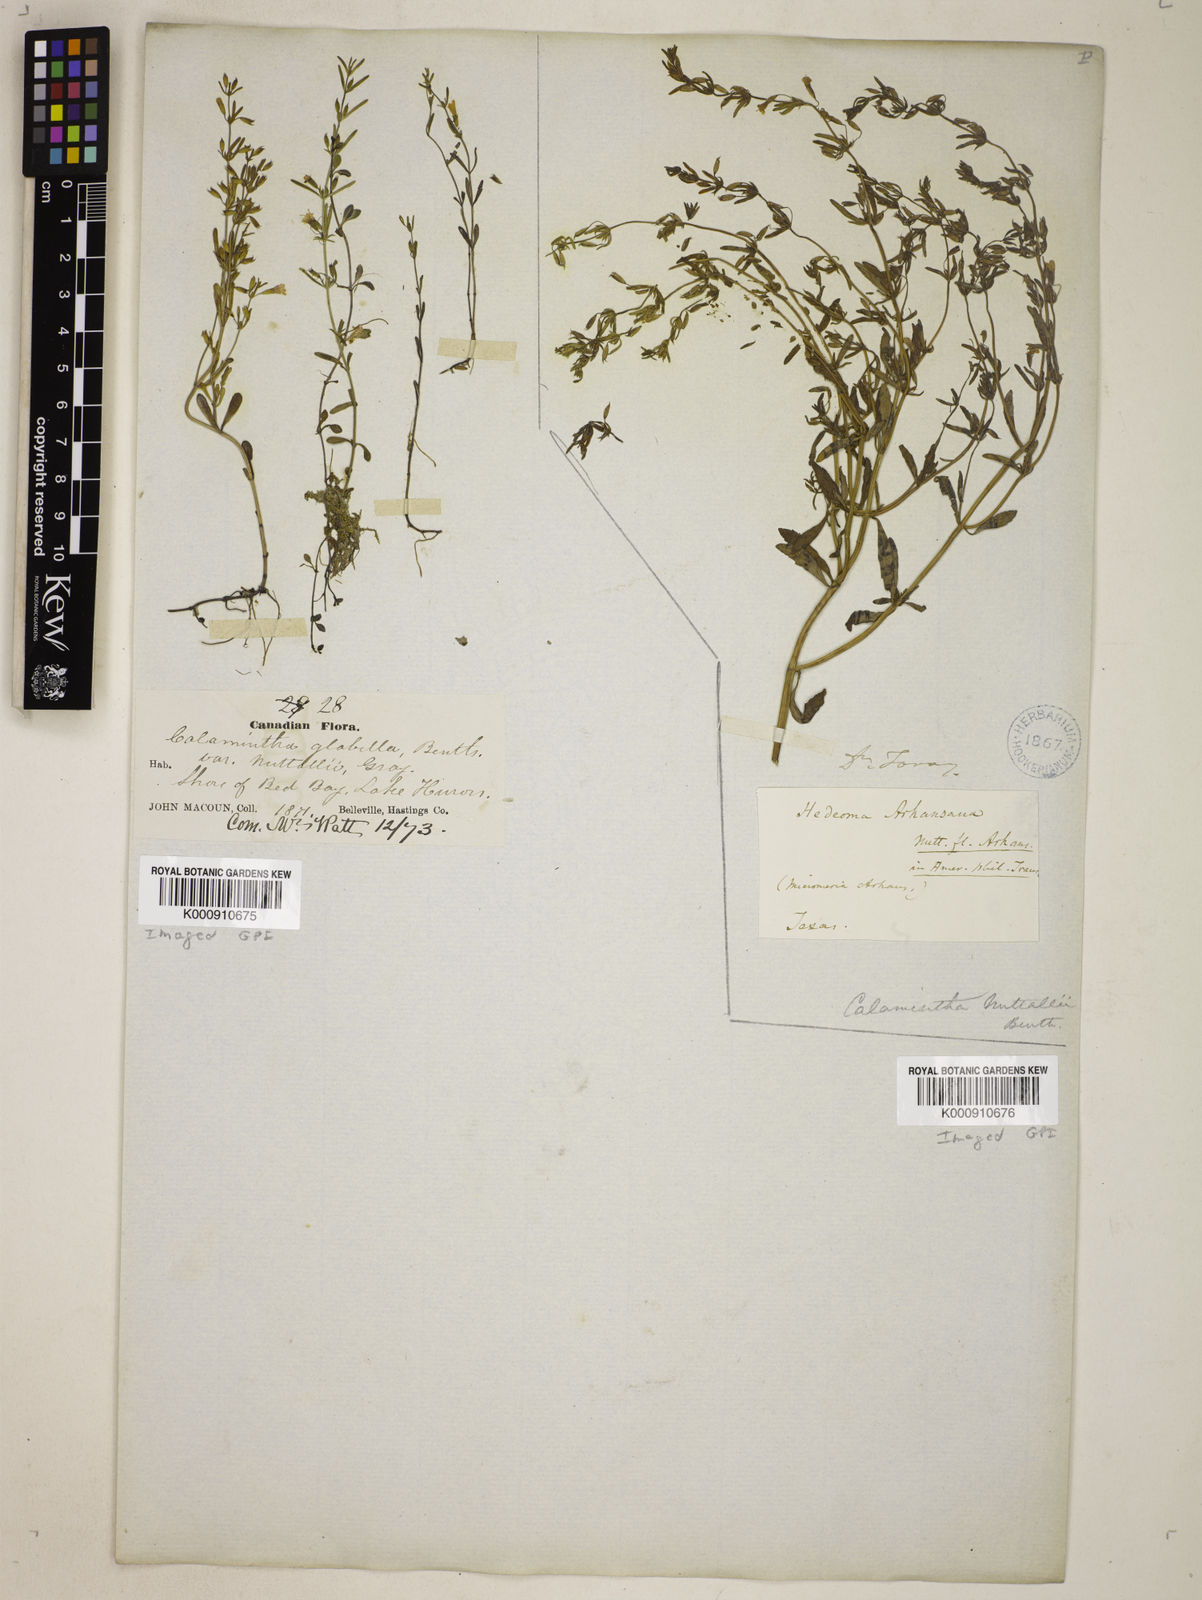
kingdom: Plantae
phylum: Tracheophyta
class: Magnoliopsida
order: Lamiales
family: Lamiaceae
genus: Clinopodium
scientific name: Clinopodium glabellum
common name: Ozark calamint
